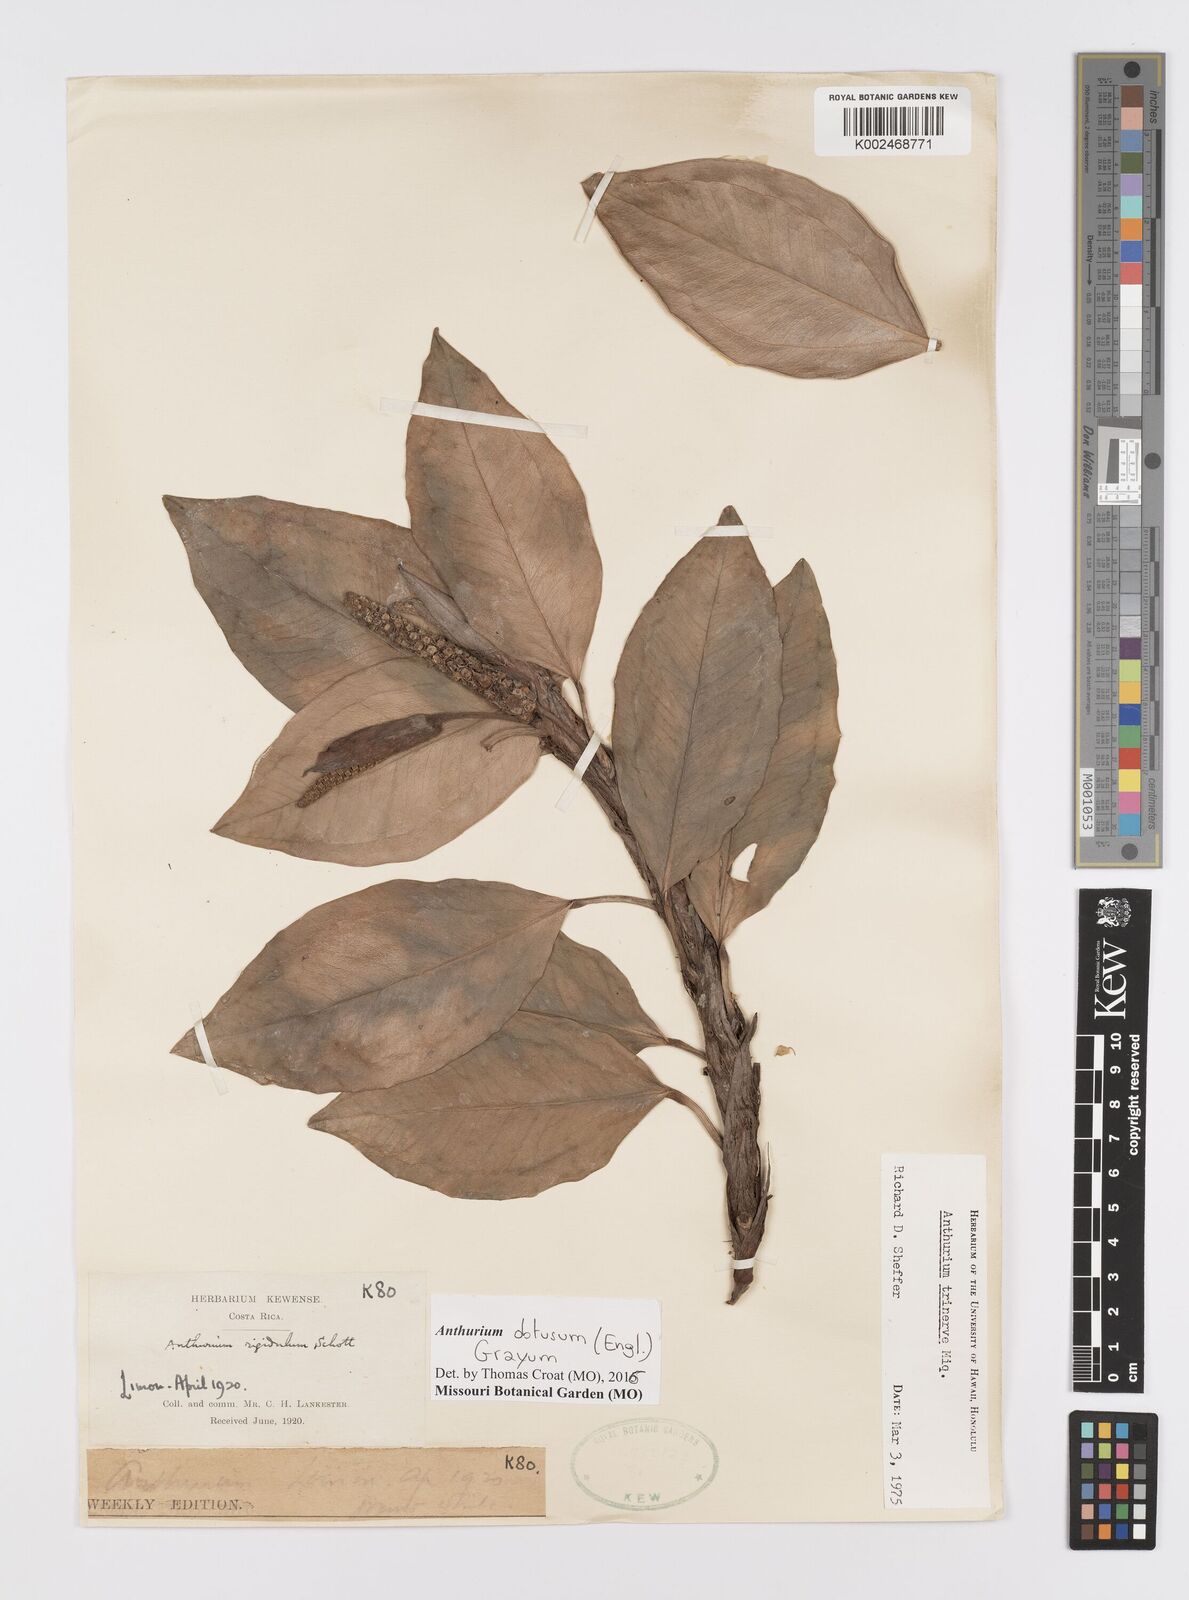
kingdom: Plantae
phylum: Tracheophyta
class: Liliopsida
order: Alismatales
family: Araceae
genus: Anthurium
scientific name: Anthurium obtusum
